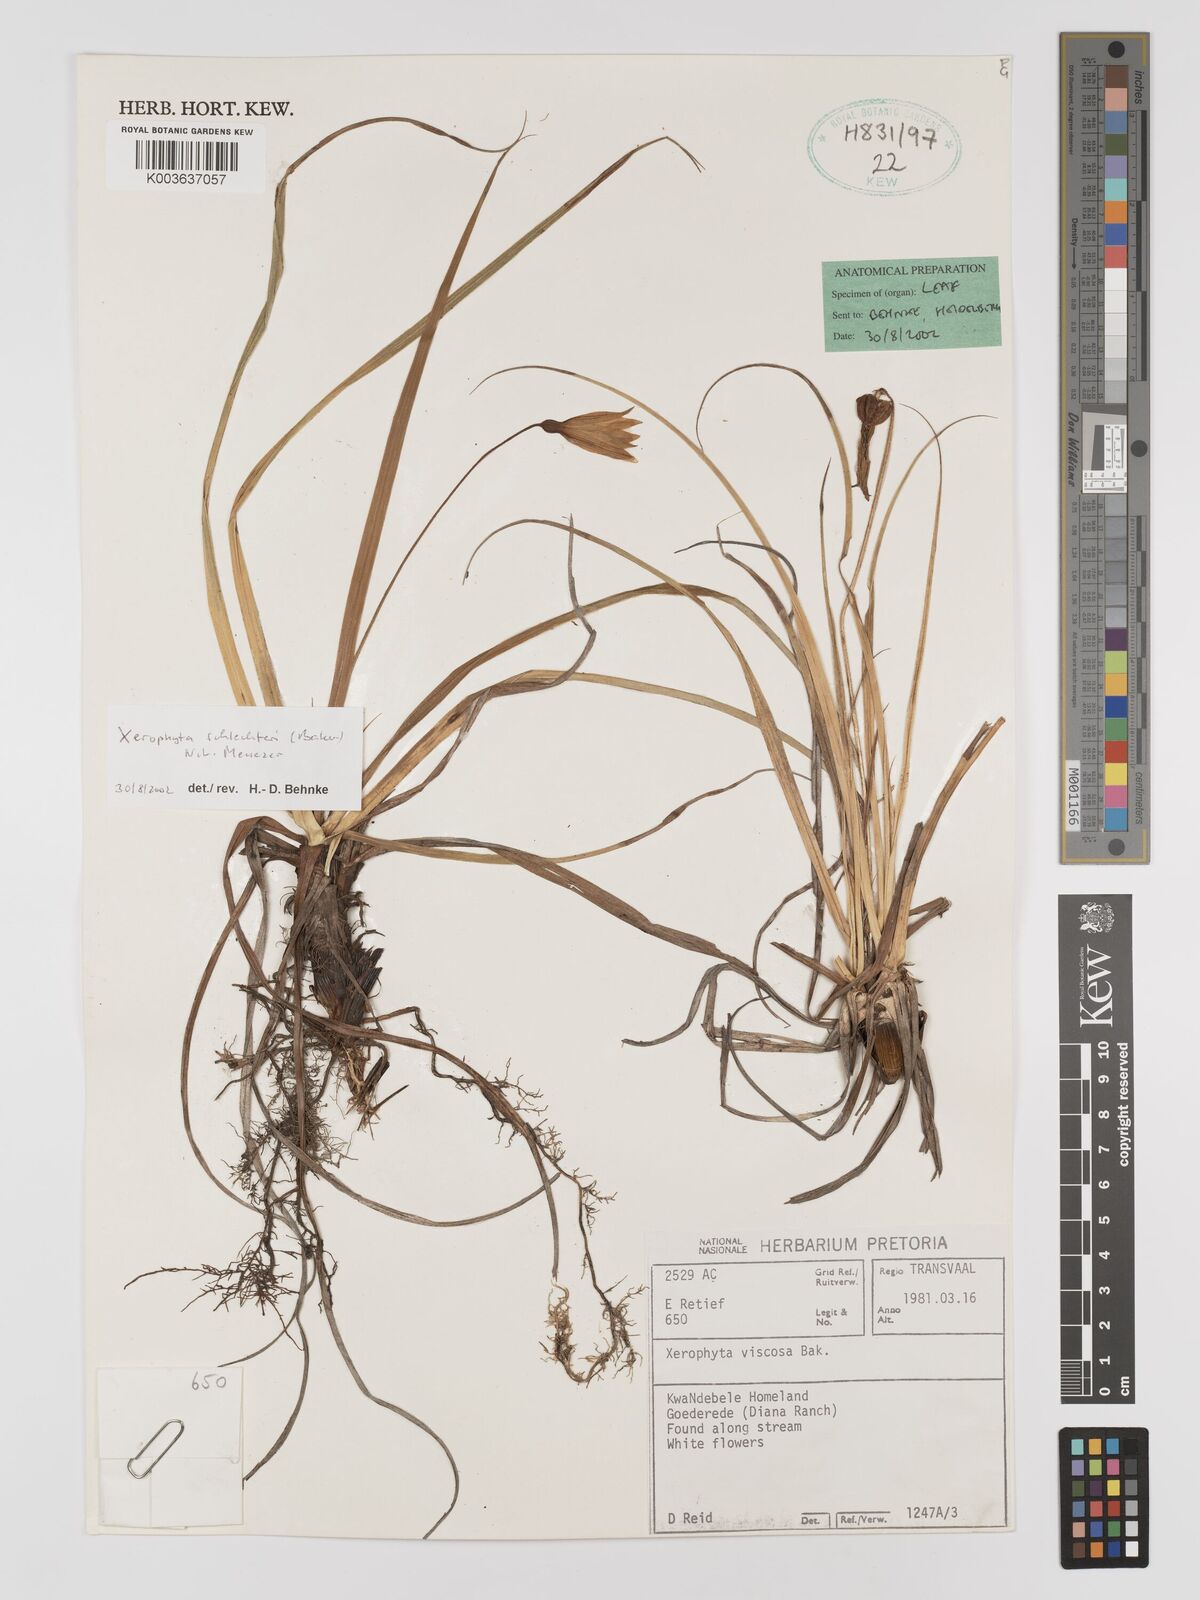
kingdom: Plantae
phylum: Tracheophyta
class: Liliopsida
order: Pandanales
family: Velloziaceae
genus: Xerophyta
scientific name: Xerophyta schlechteri
